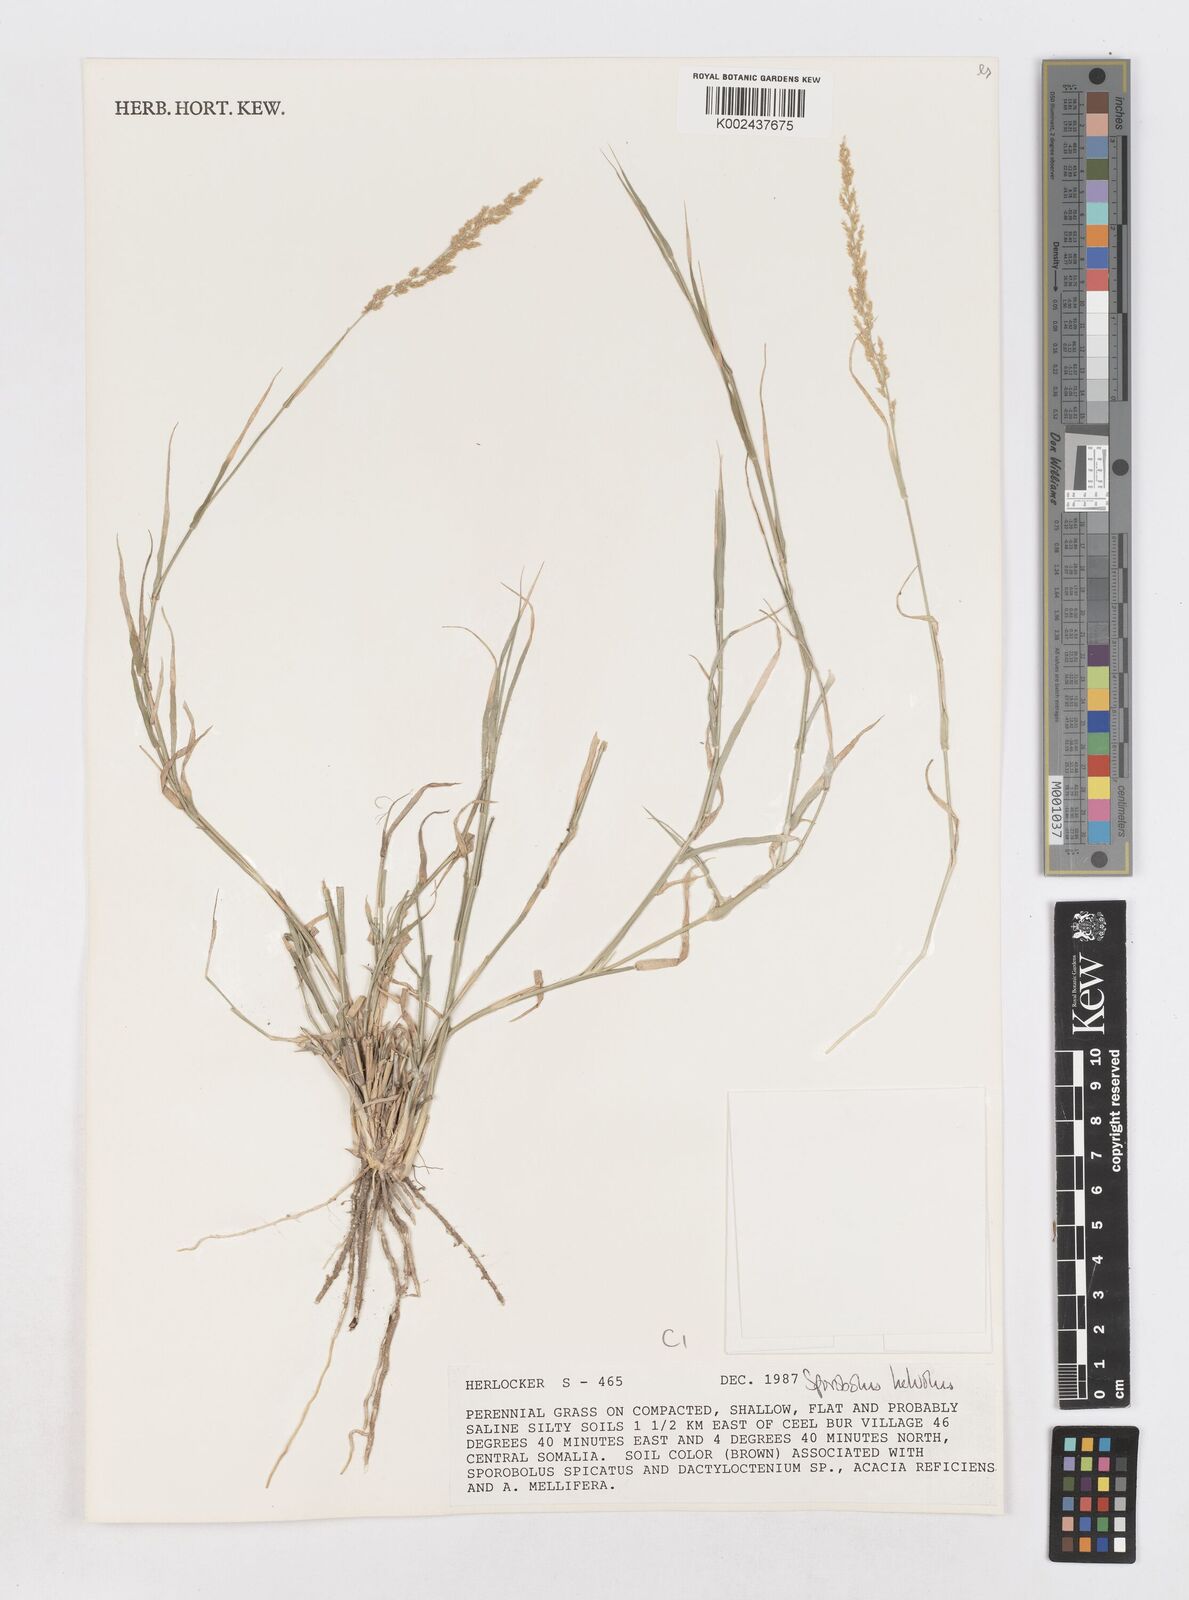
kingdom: Plantae
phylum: Tracheophyta
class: Liliopsida
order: Poales
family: Poaceae
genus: Sporobolus
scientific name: Sporobolus helvolus
